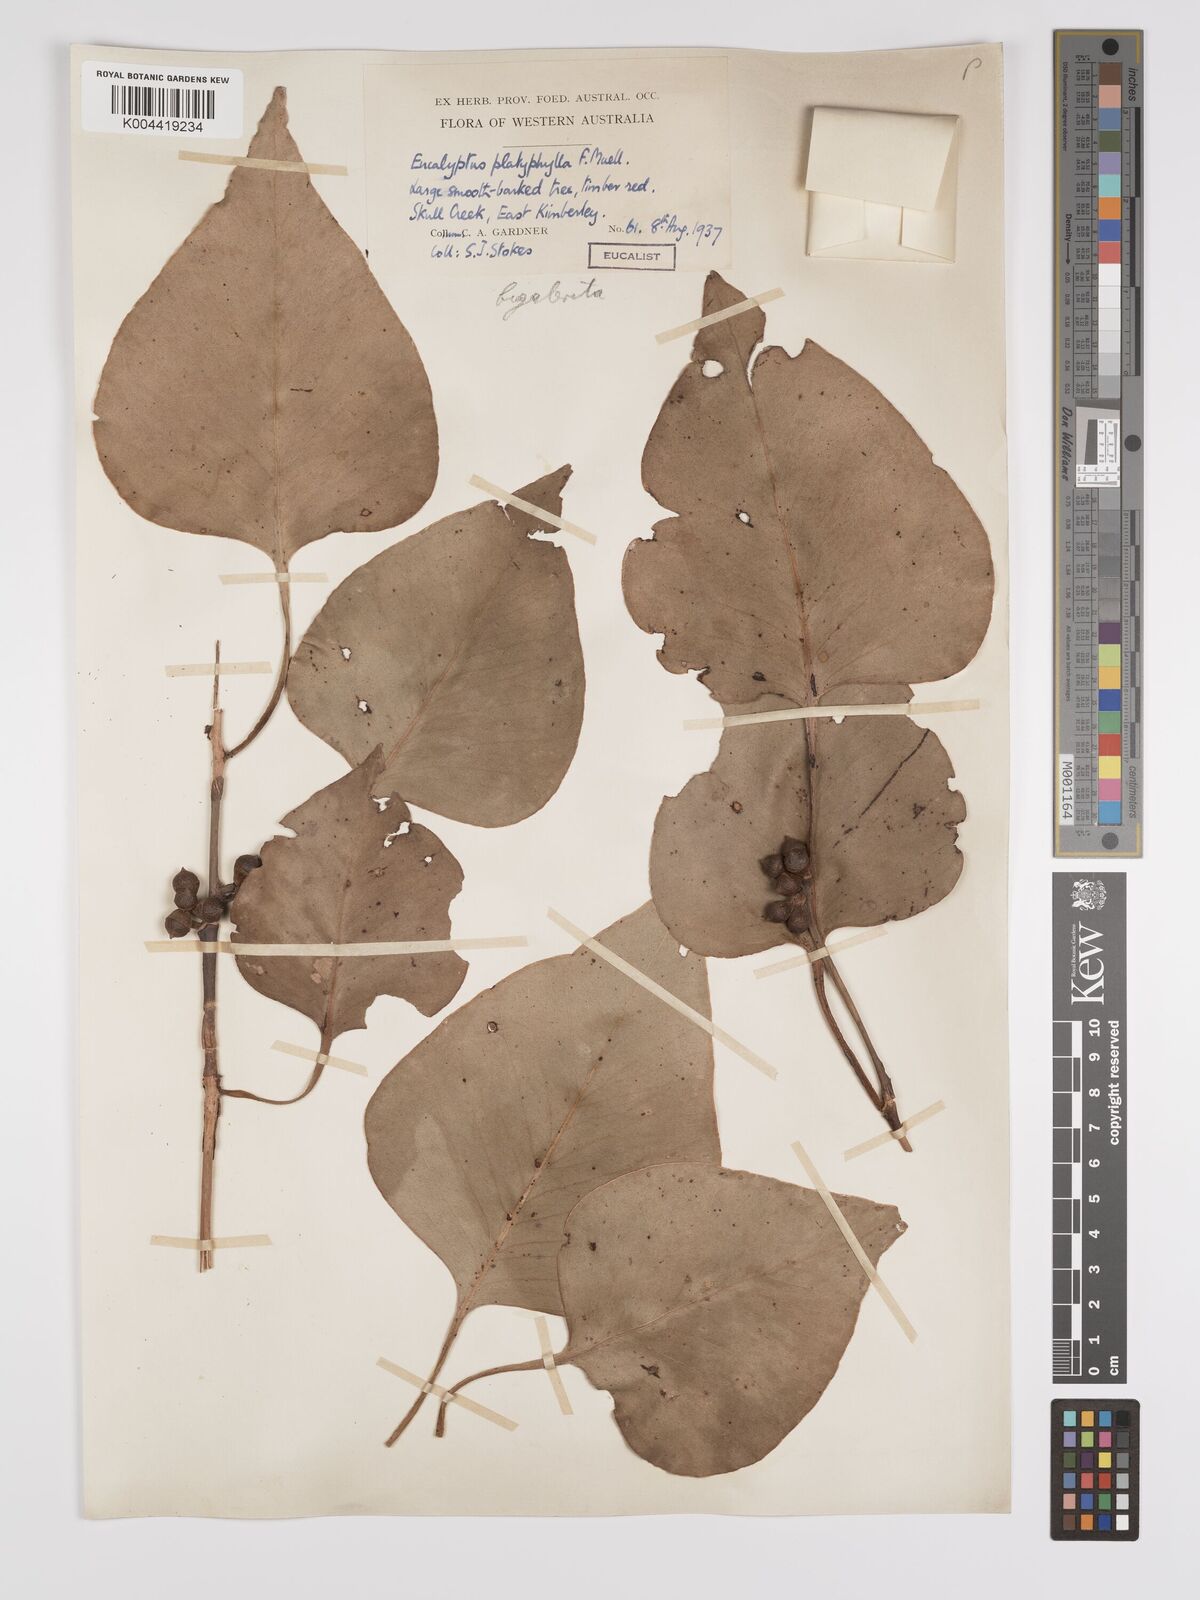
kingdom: Plantae
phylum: Tracheophyta
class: Magnoliopsida
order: Myrtales
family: Myrtaceae
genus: Eucalyptus
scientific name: Eucalyptus bigalerita
